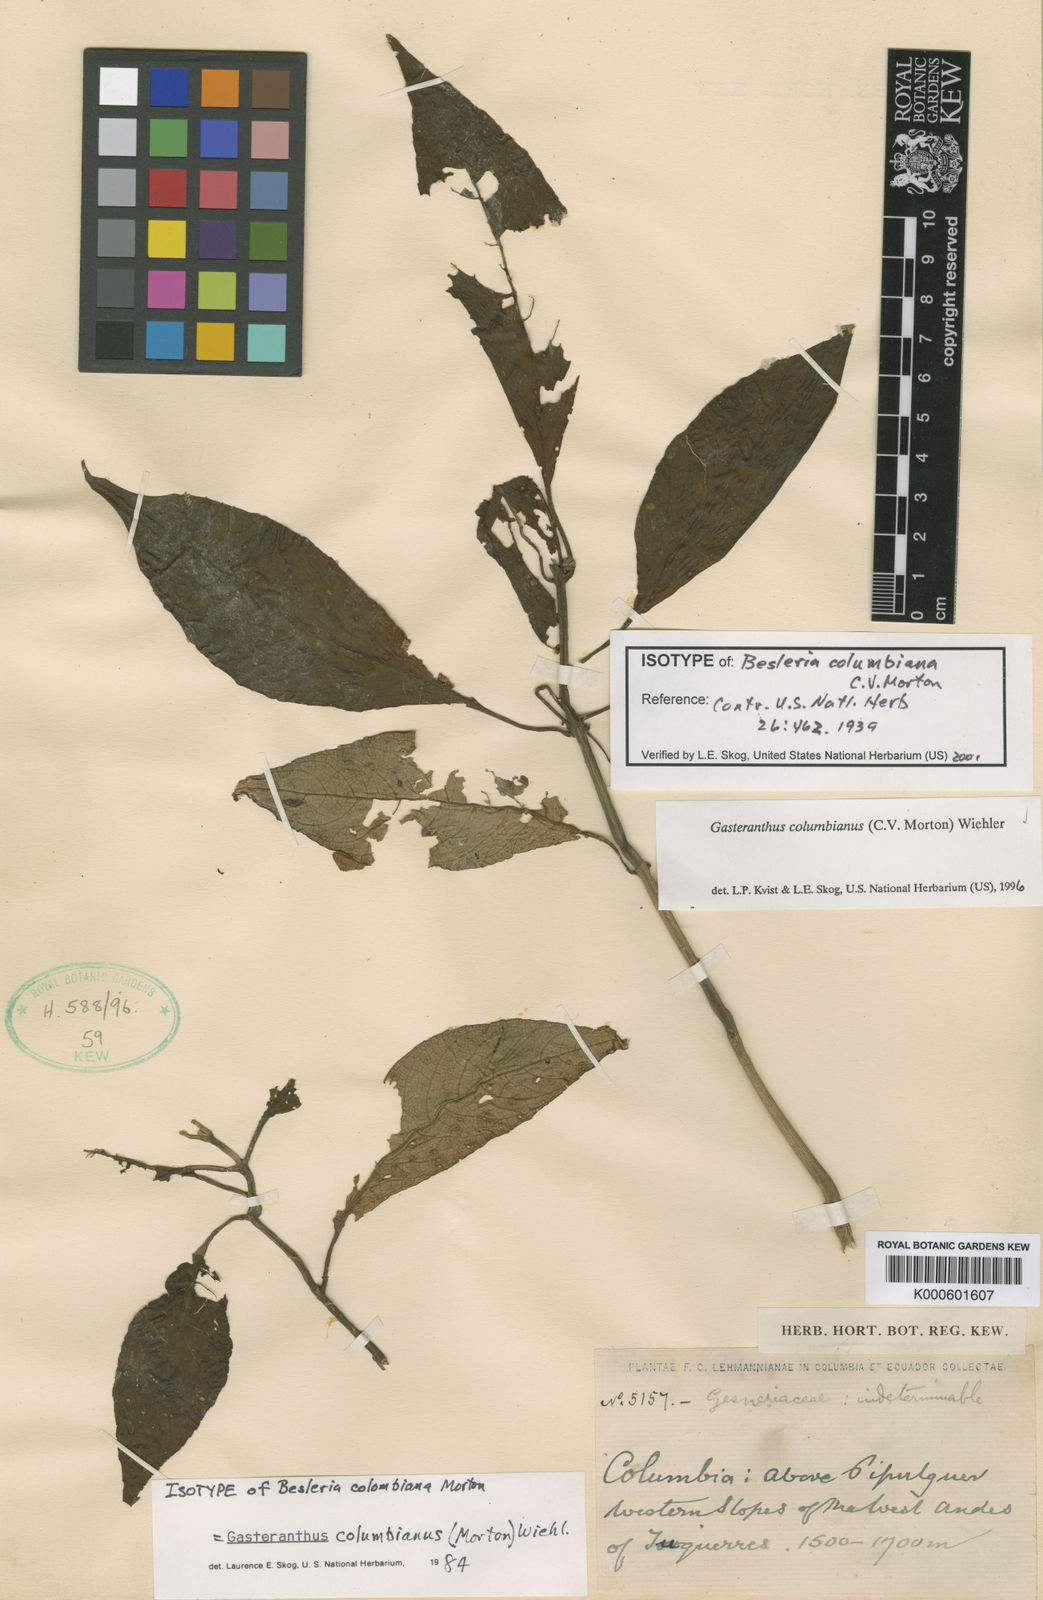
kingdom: Plantae
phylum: Tracheophyta
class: Magnoliopsida
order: Lamiales
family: Gesneriaceae
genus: Gasteranthus
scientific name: Gasteranthus
